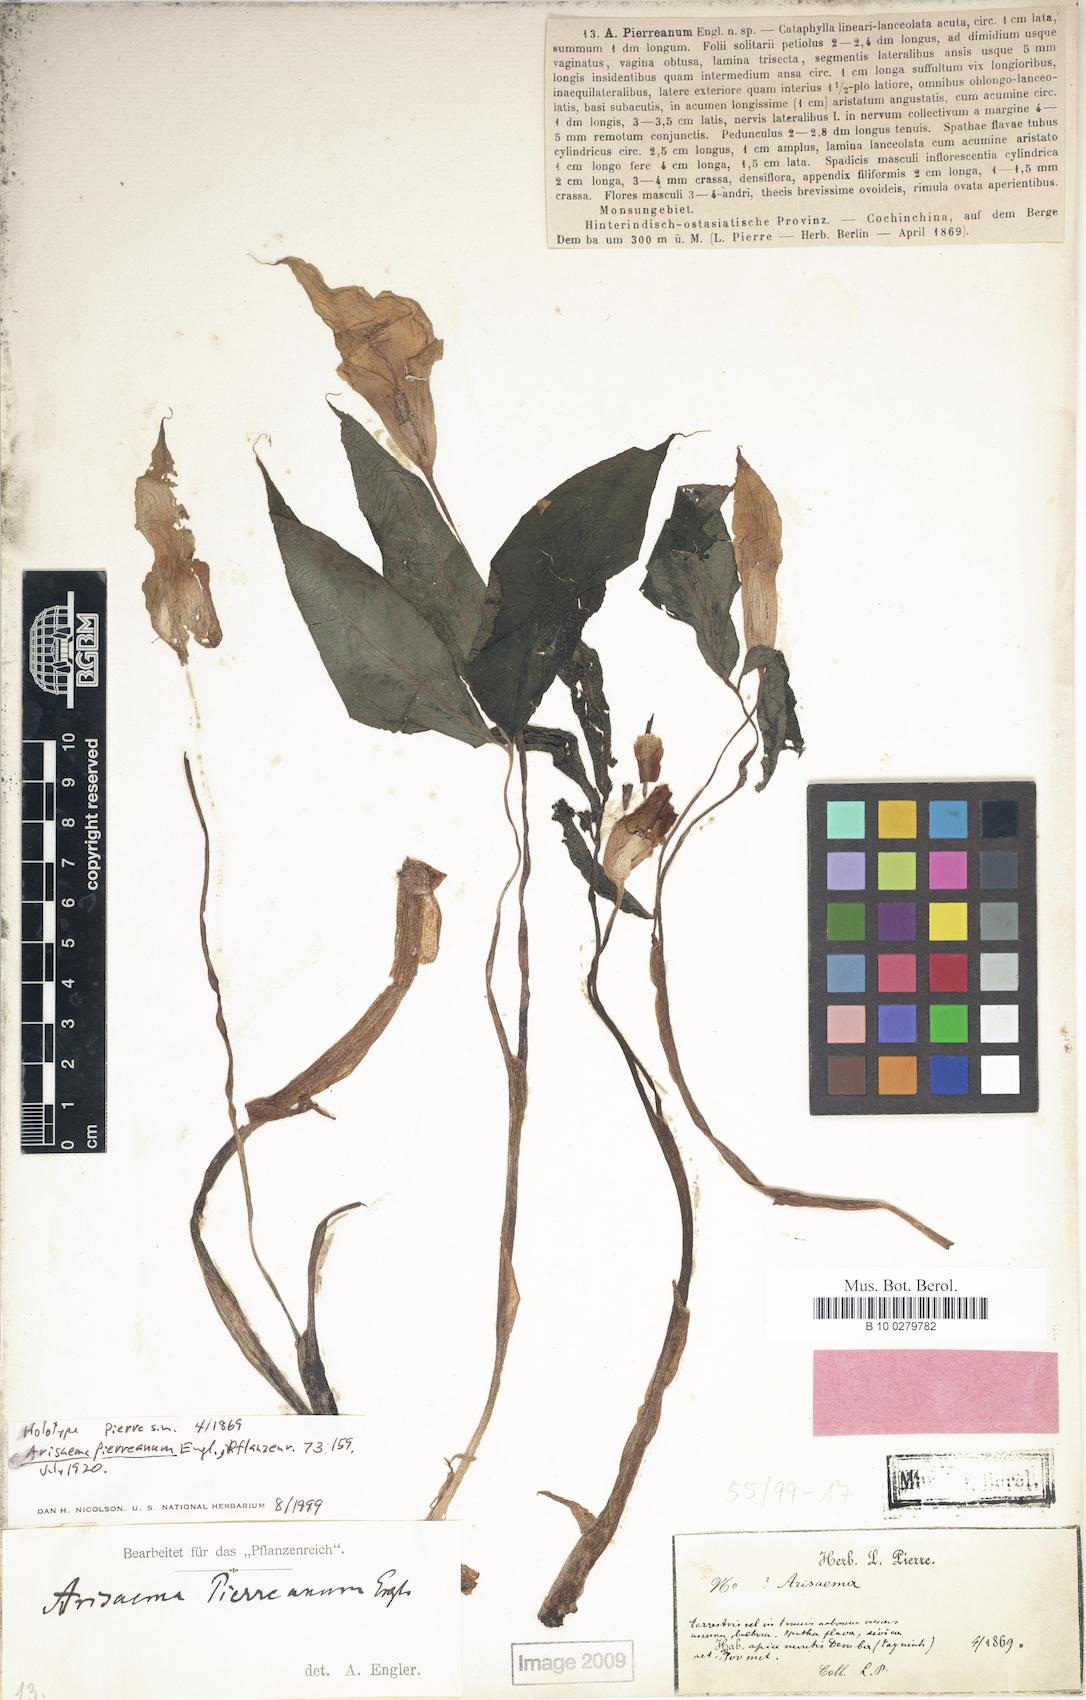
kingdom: Plantae
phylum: Tracheophyta
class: Liliopsida
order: Alismatales
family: Araceae
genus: Arisaema
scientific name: Arisaema pierreanum
